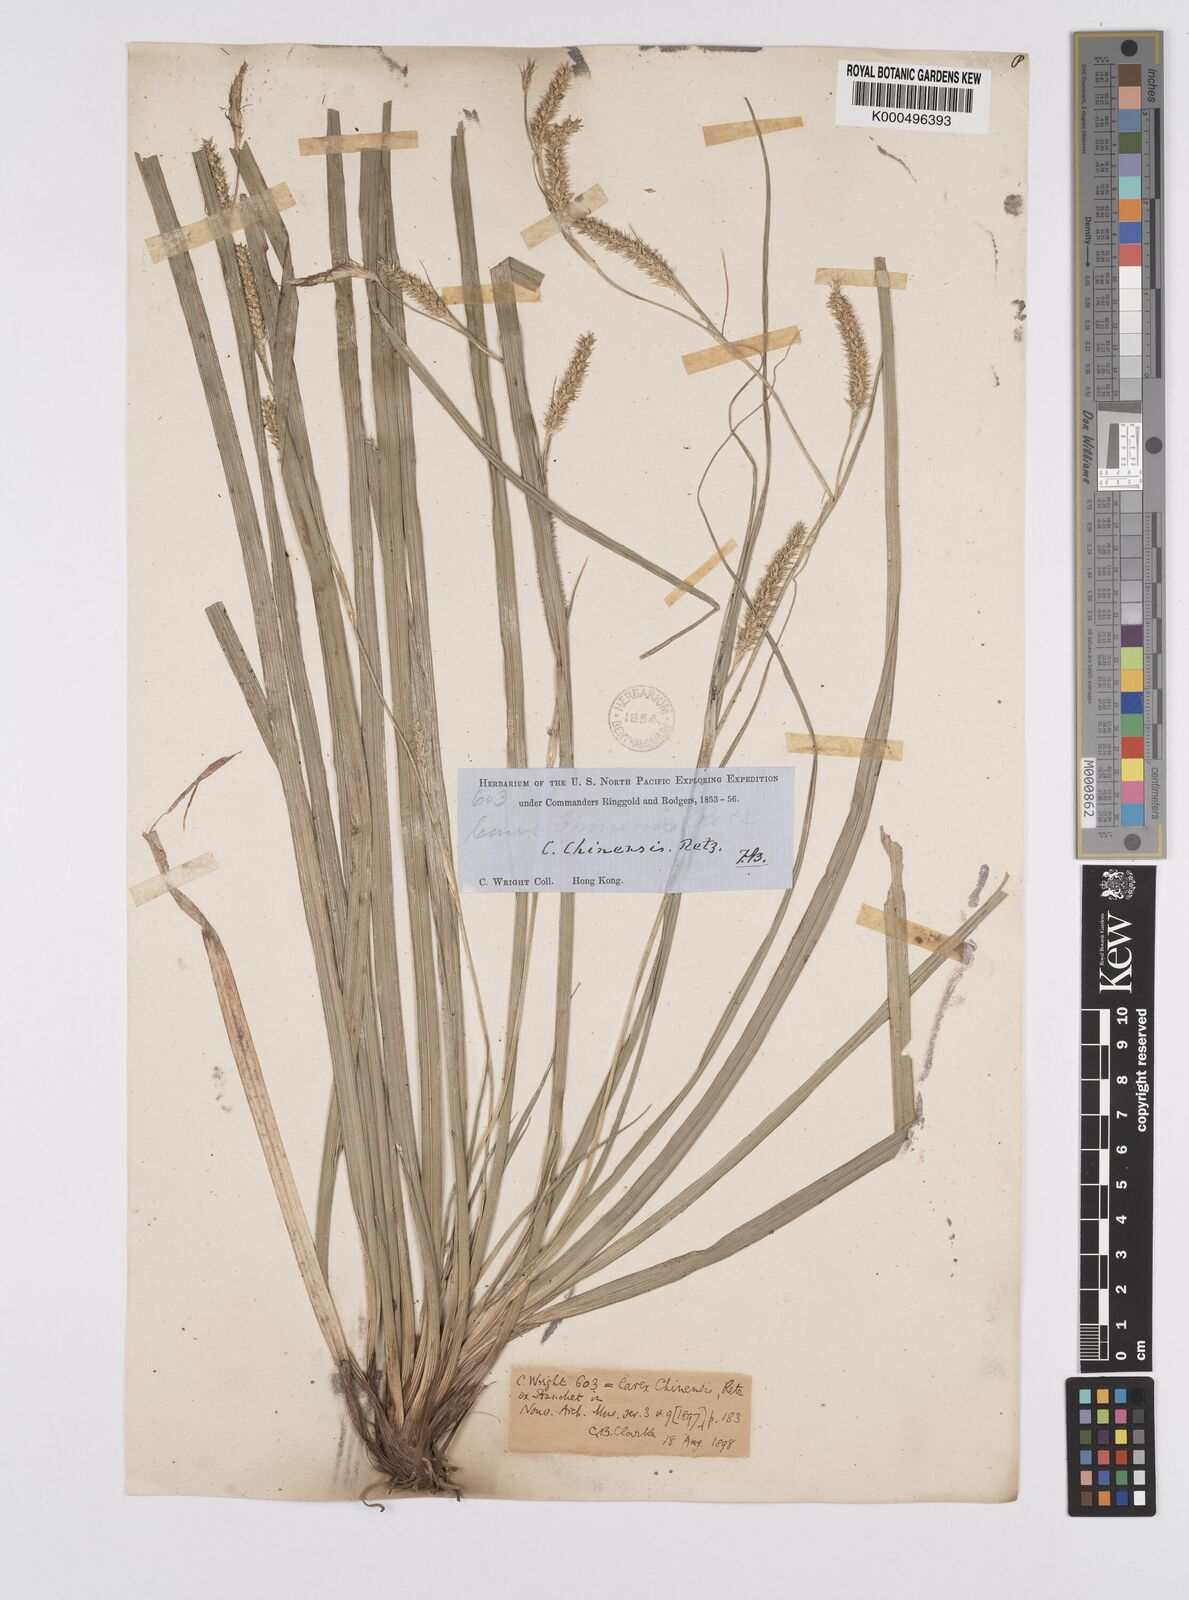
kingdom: Plantae
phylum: Tracheophyta
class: Liliopsida
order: Poales
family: Cyperaceae
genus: Carex
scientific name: Carex chinensis
